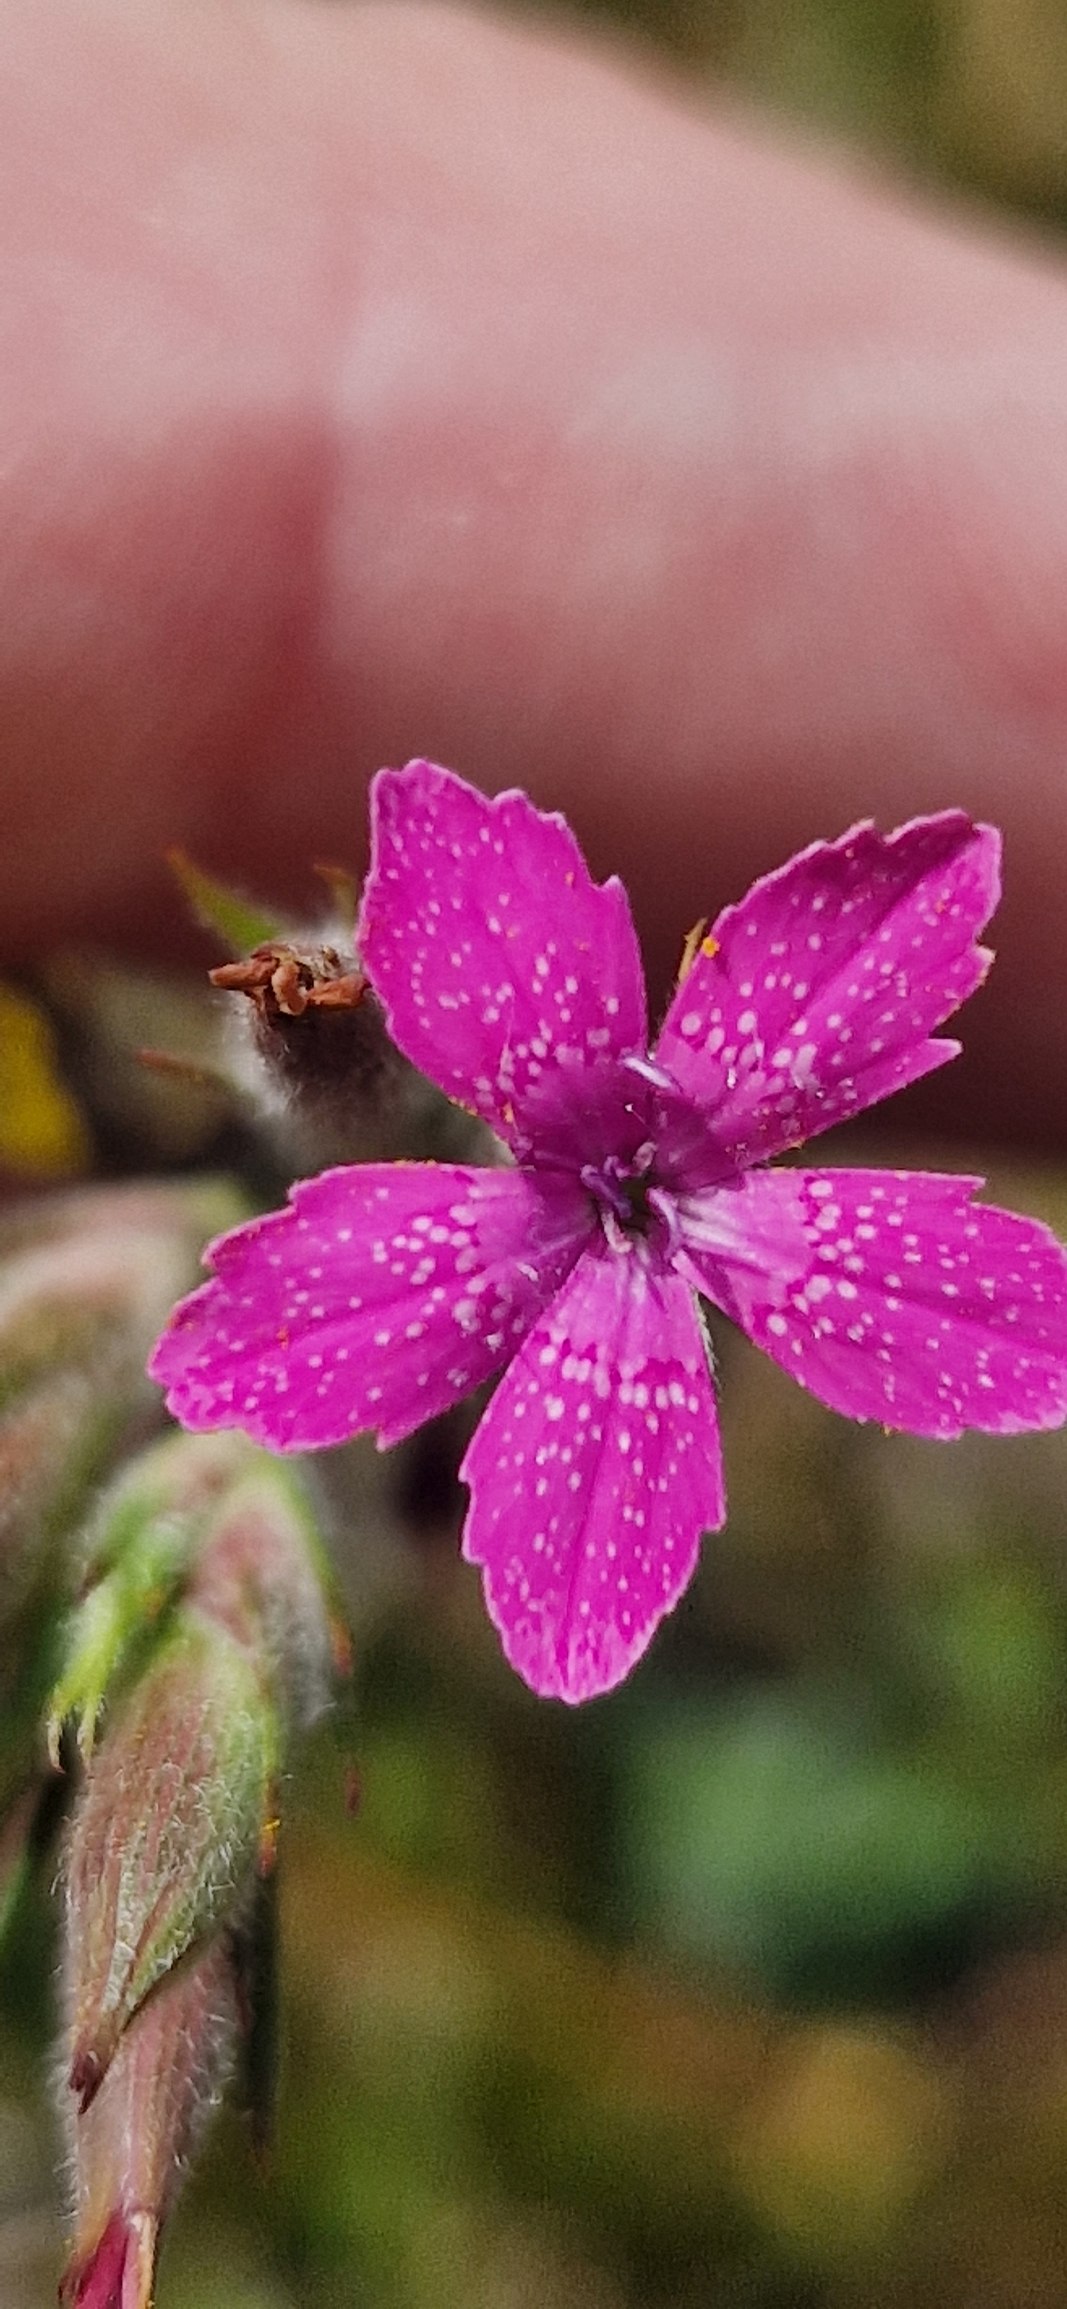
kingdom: Plantae
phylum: Tracheophyta
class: Magnoliopsida
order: Caryophyllales
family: Caryophyllaceae
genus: Dianthus
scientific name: Dianthus armeria
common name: Kost-nellike
